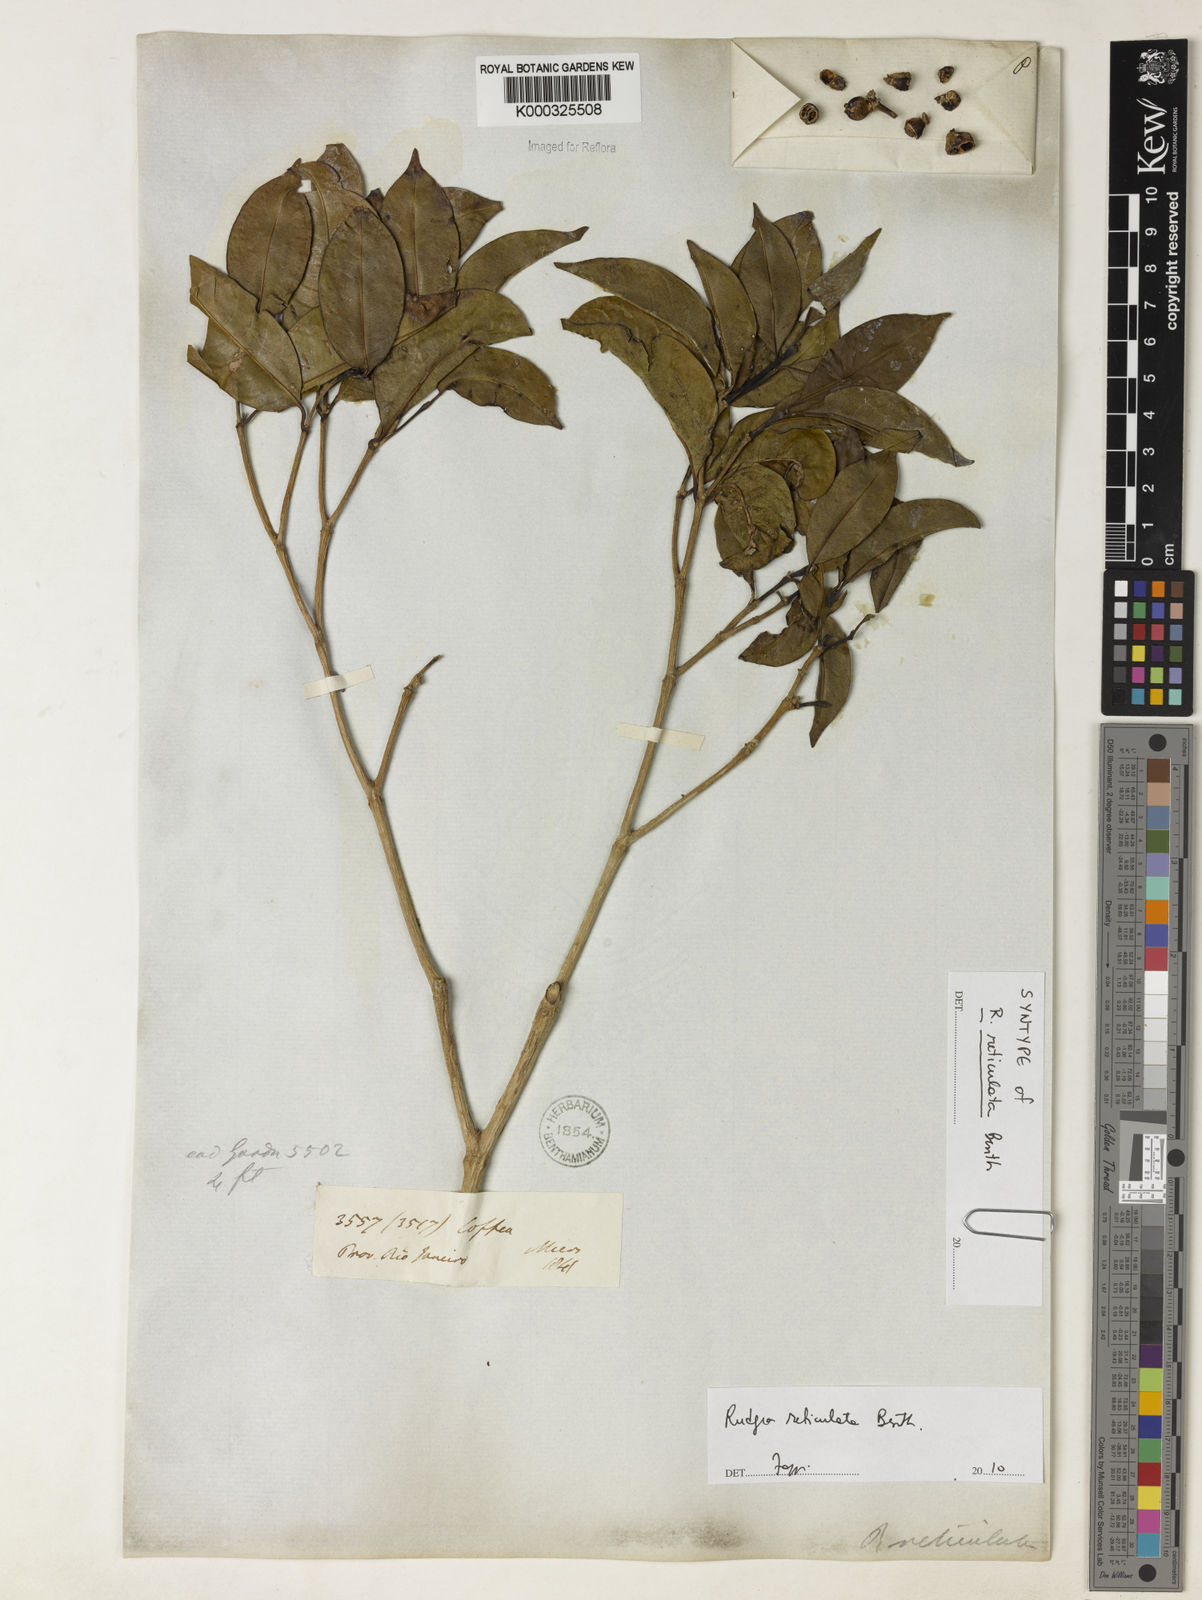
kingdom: Plantae
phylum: Tracheophyta
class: Magnoliopsida
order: Gentianales
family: Rubiaceae
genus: Rudgea
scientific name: Rudgea reticulata
